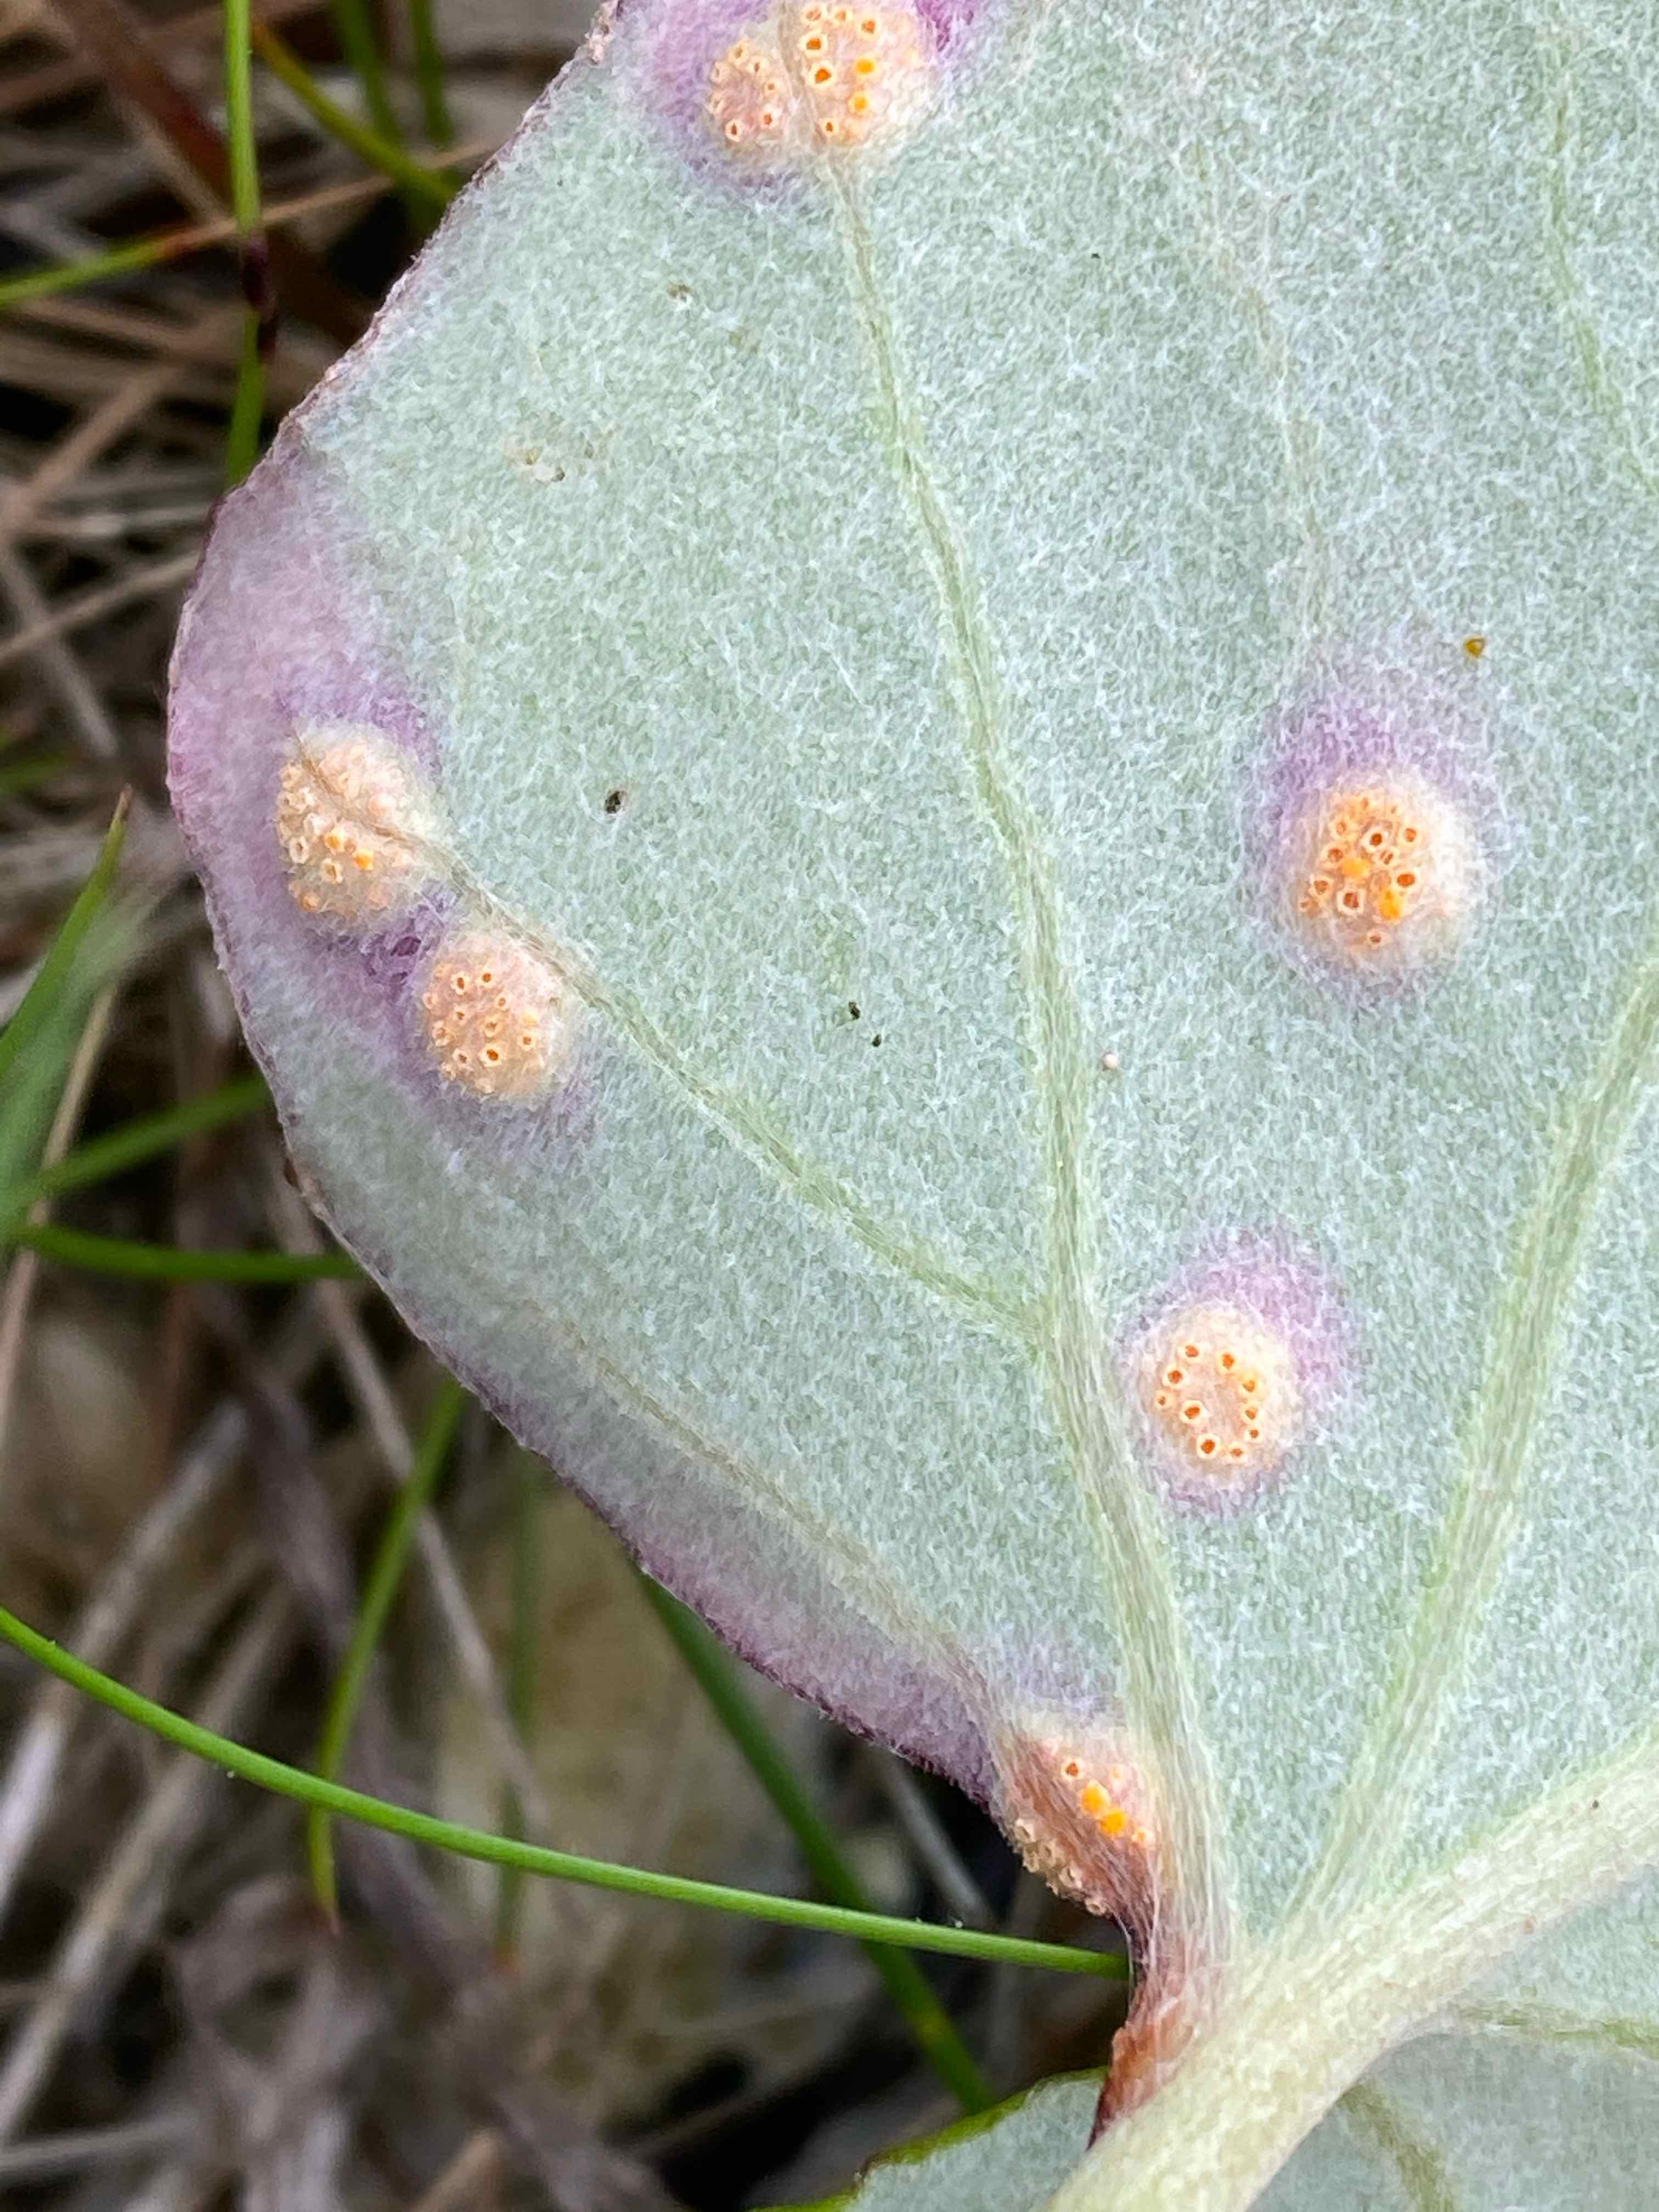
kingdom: Fungi
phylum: Basidiomycota
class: Pucciniomycetes
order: Pucciniales
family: Pucciniaceae
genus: Puccinia
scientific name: Puccinia poarum
